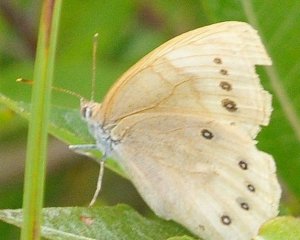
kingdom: Animalia
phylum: Arthropoda
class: Insecta
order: Lepidoptera
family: Nymphalidae
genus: Lethe
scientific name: Lethe eurydice
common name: Eyed Brown
